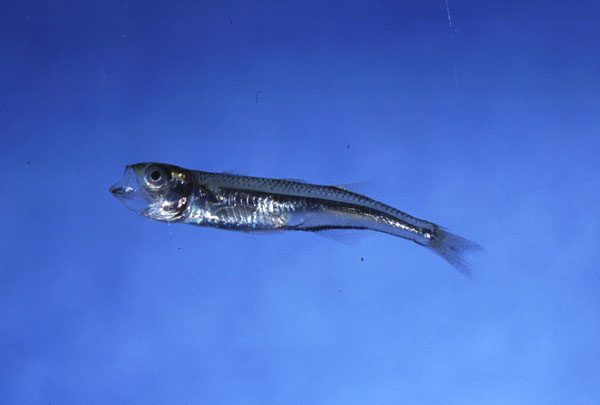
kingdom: Animalia
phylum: Chordata
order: Atheriniformes
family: Atherinidae
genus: Atherina
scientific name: Atherina breviceps
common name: Cape silverside
